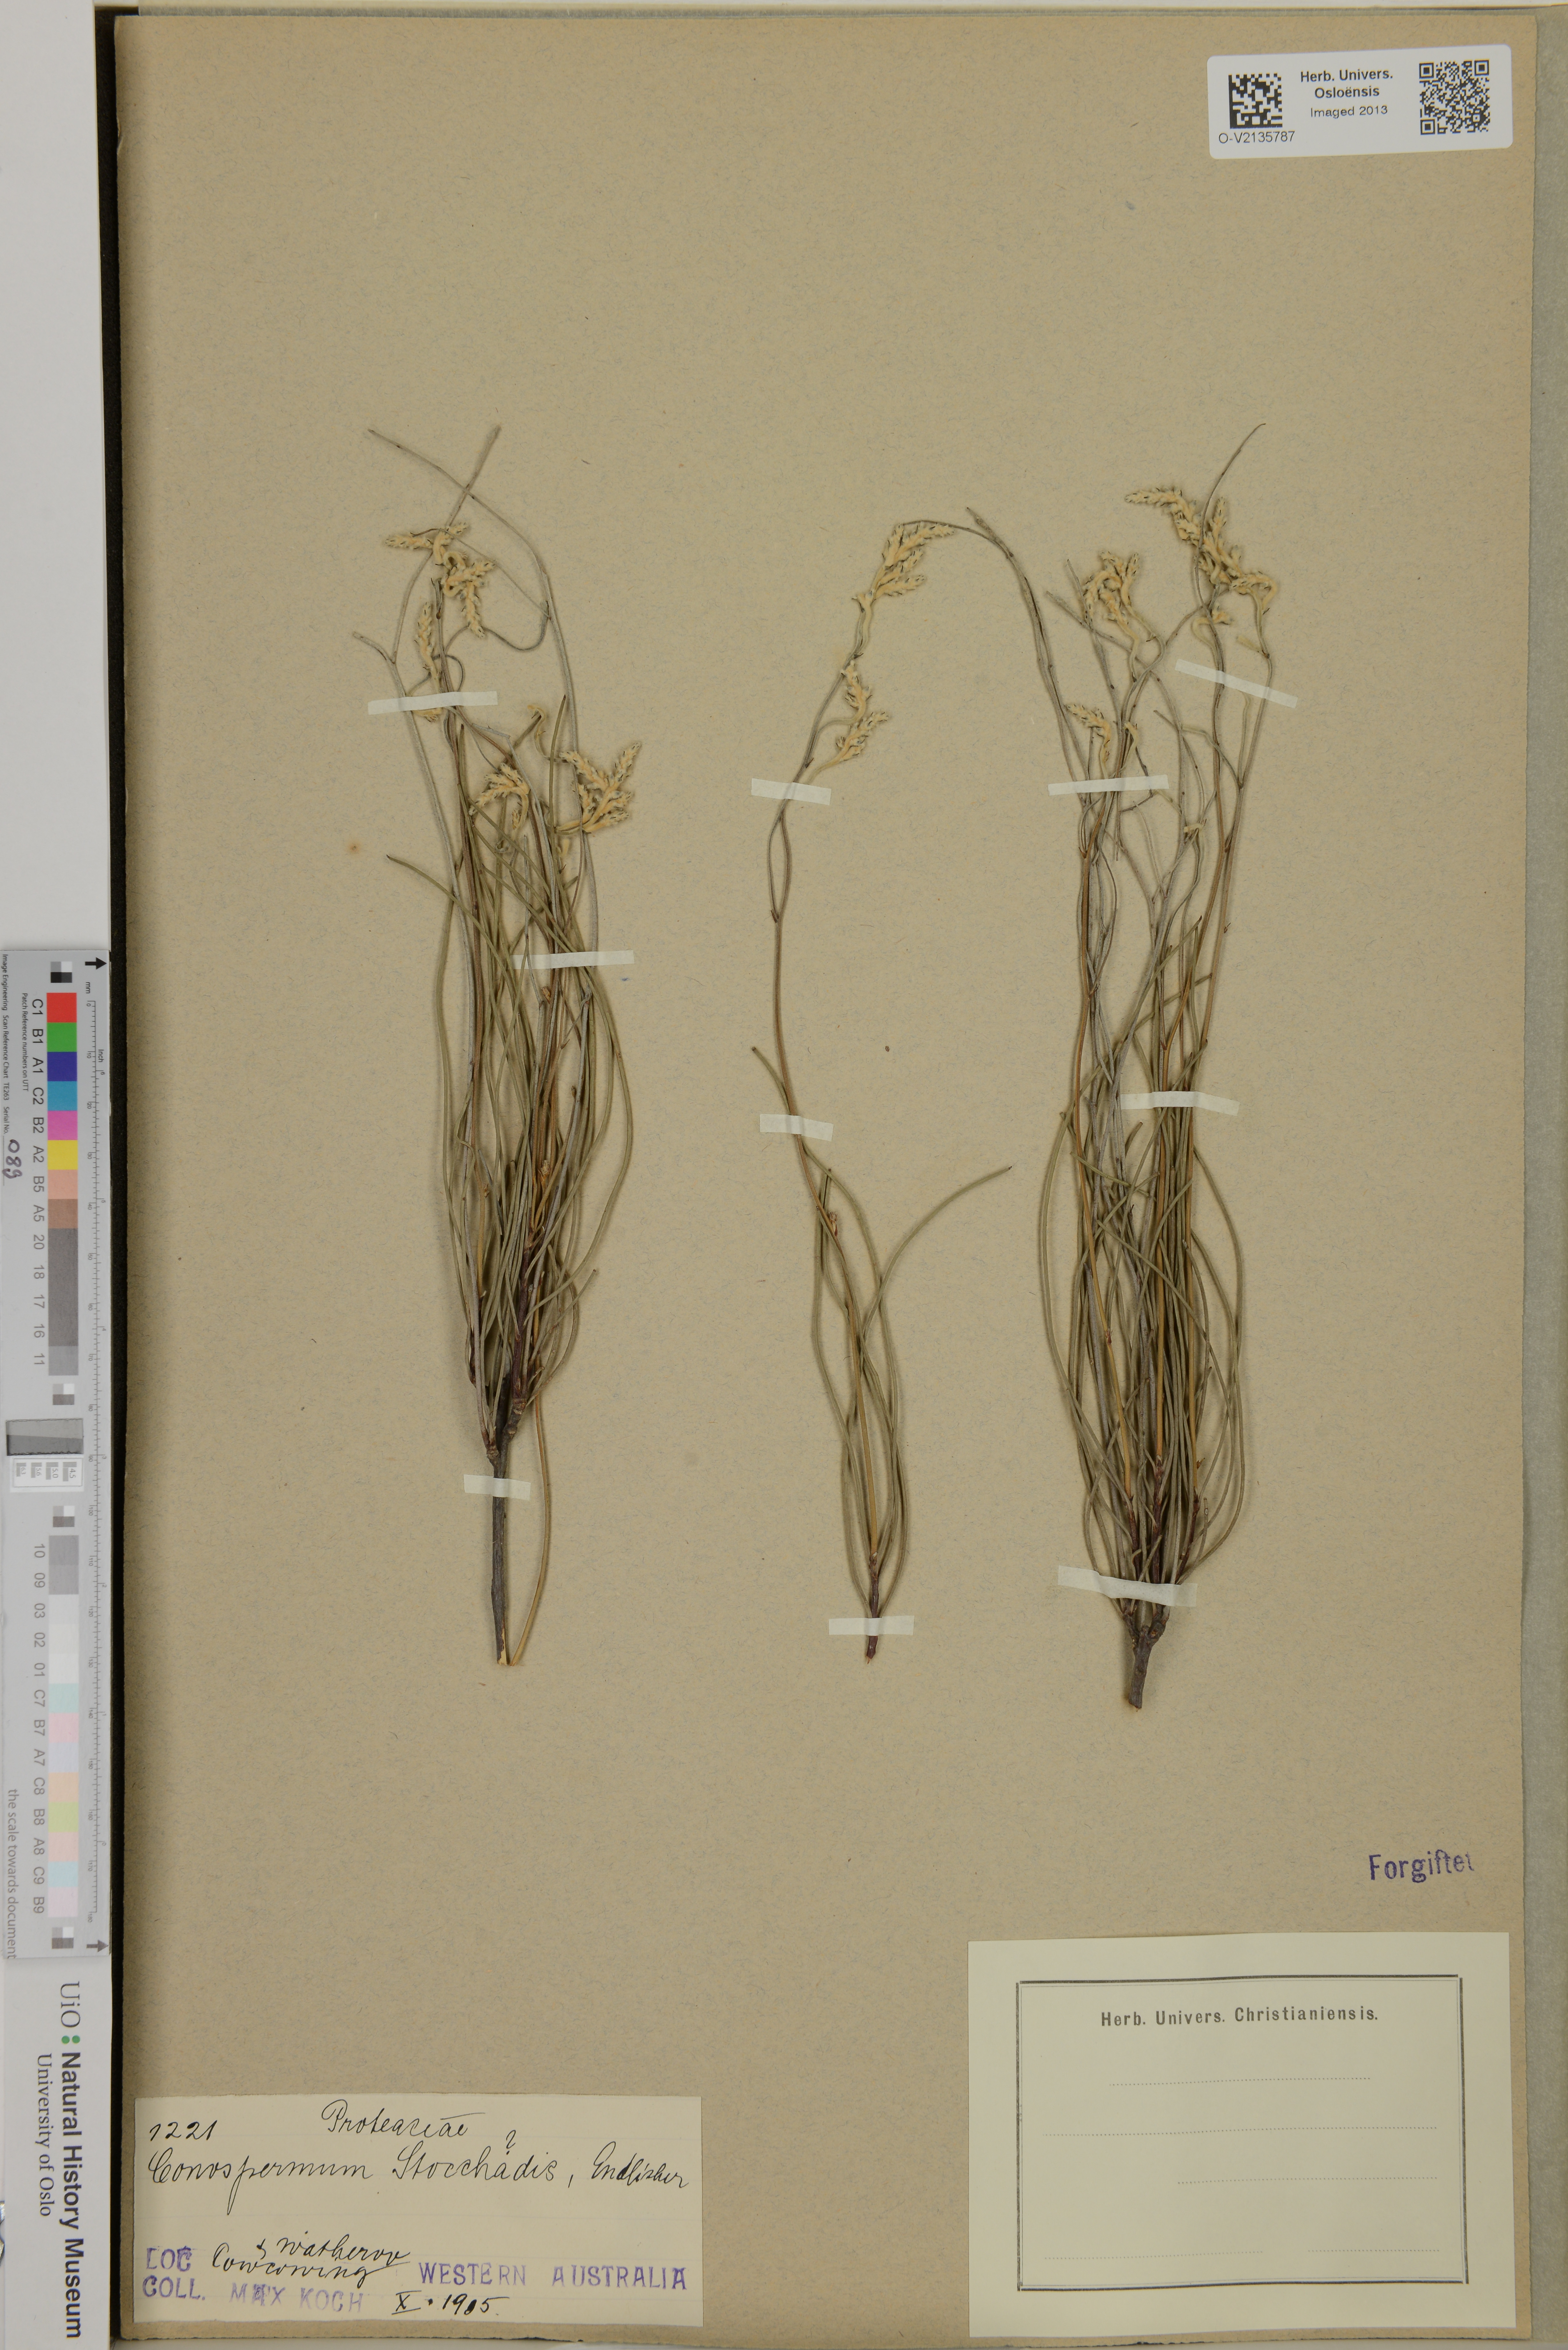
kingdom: Plantae
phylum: Tracheophyta
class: Magnoliopsida
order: Proteales
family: Proteaceae
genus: Conospermum
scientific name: Conospermum stoechadis
